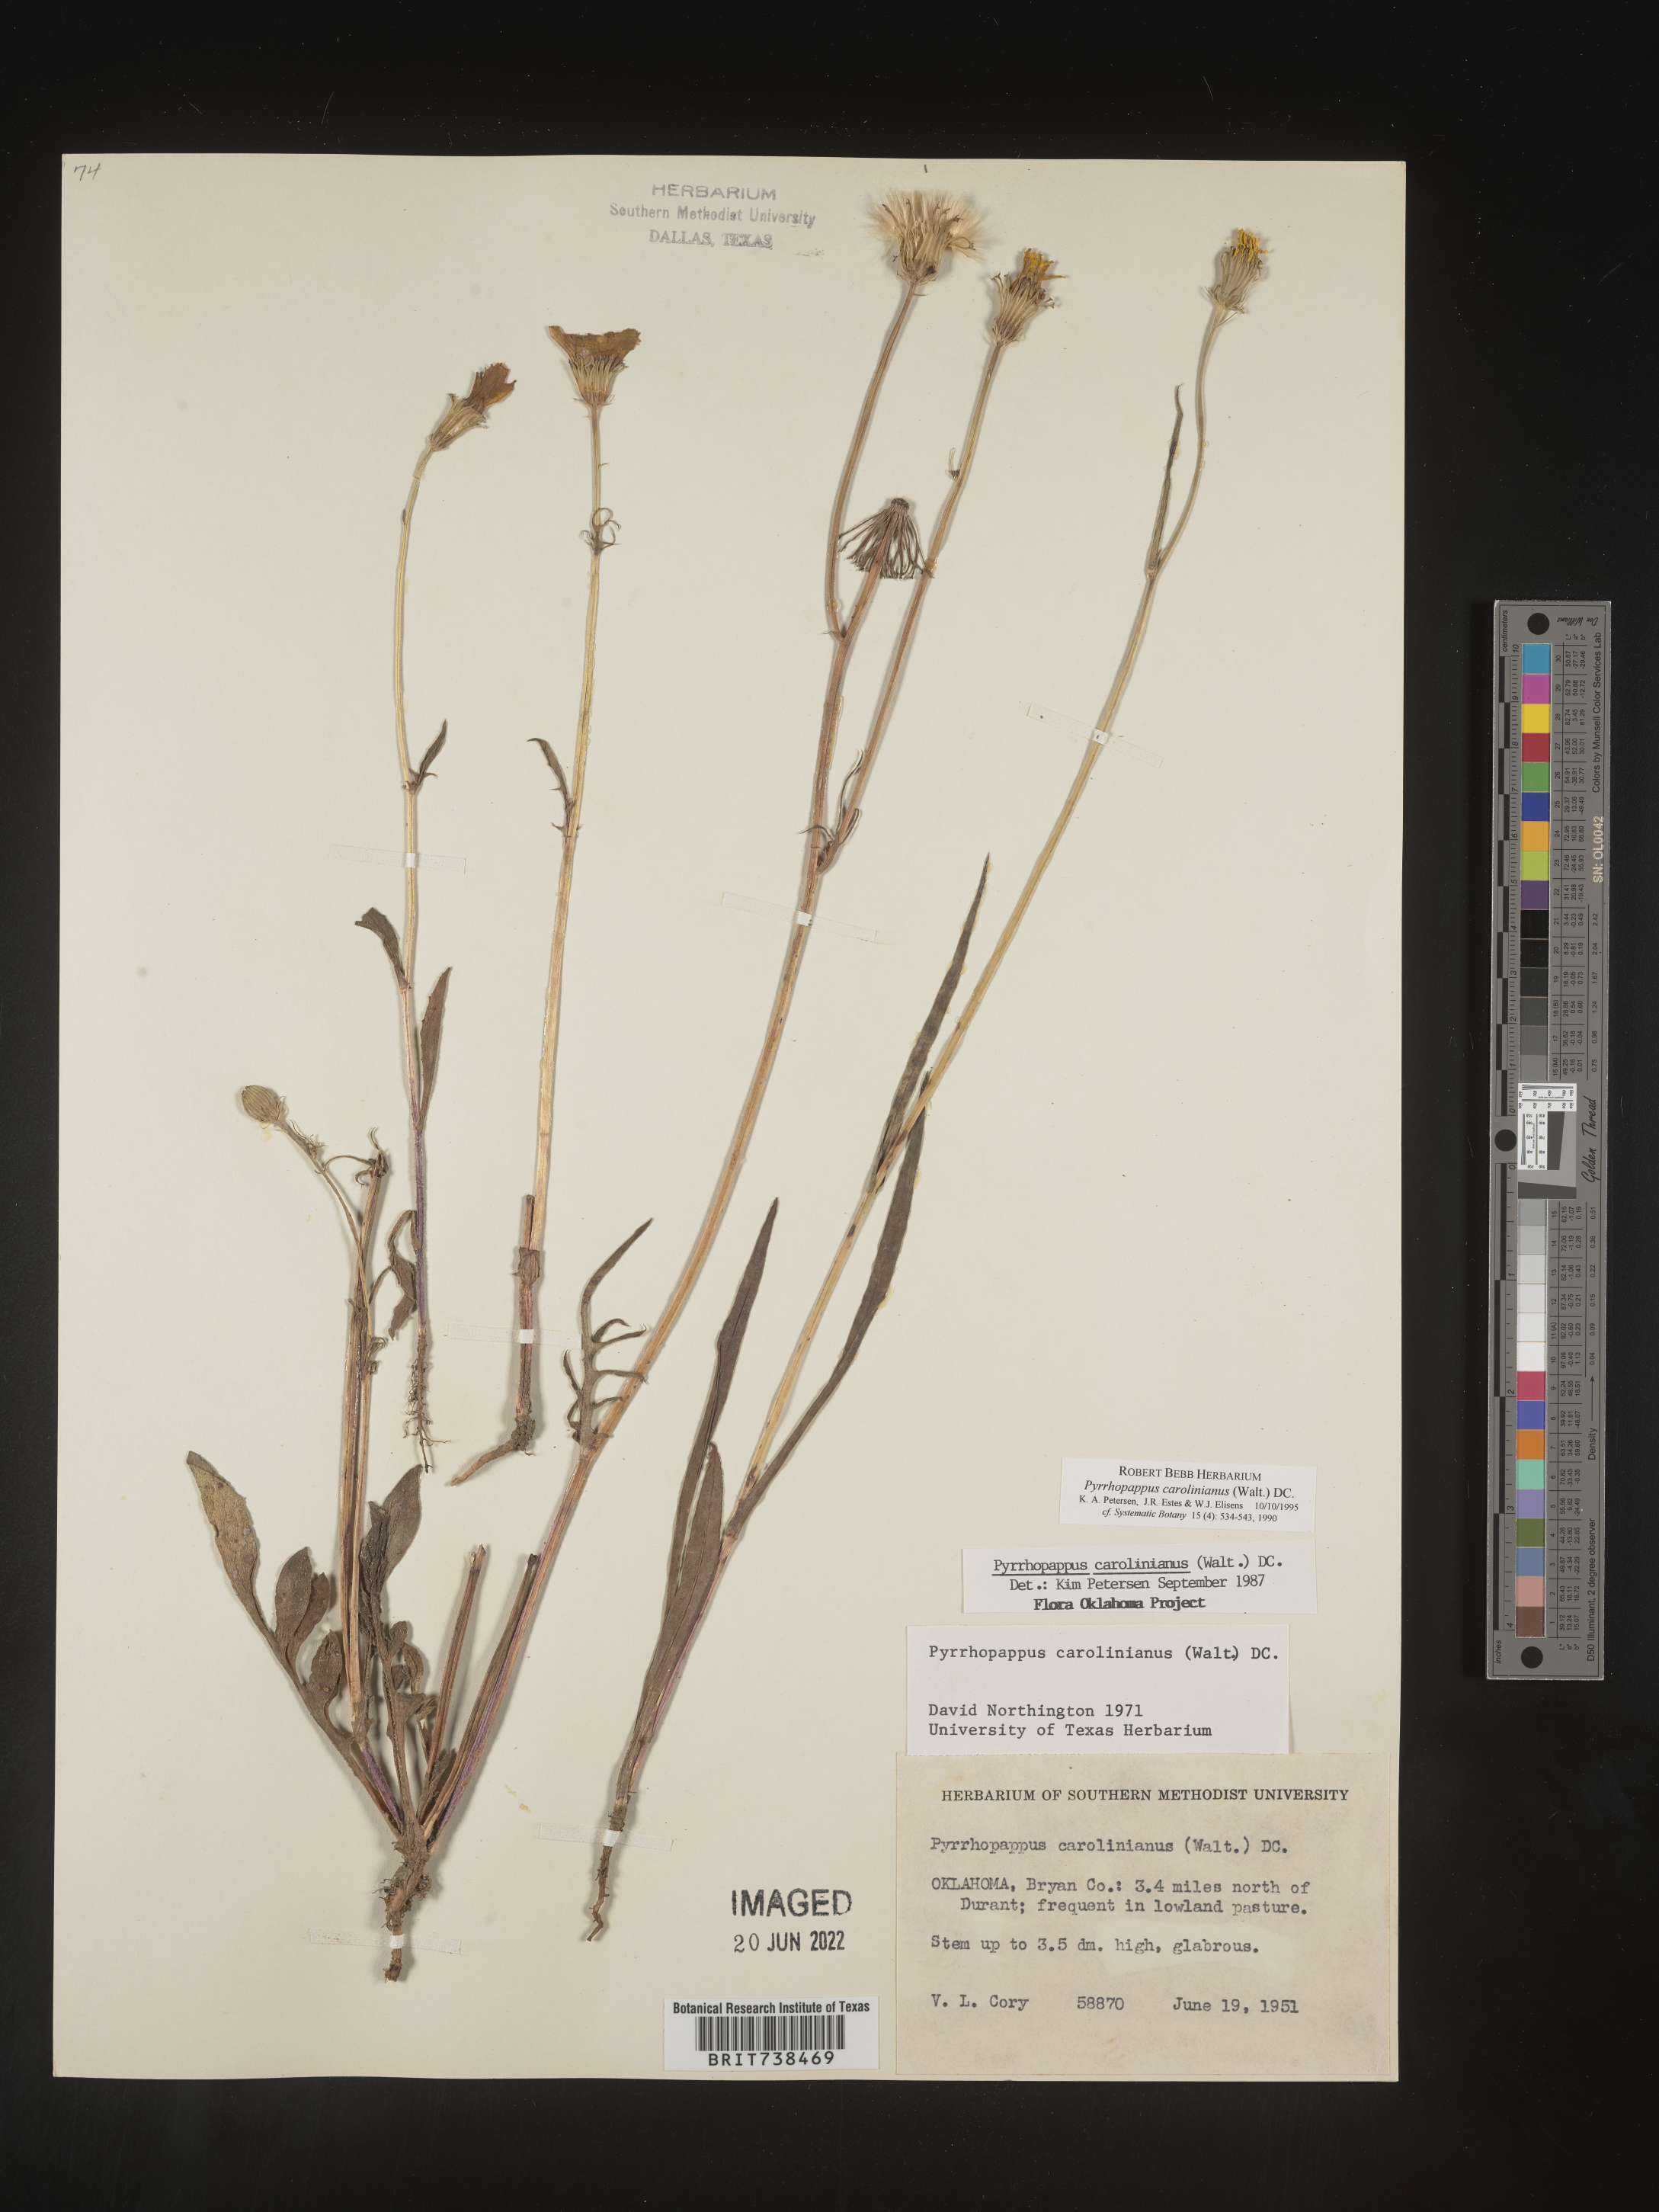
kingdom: Plantae
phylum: Tracheophyta
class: Magnoliopsida
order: Asterales
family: Asteraceae
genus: Pyrrhopappus
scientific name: Pyrrhopappus carolinianus
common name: Carolina desert-chicory
